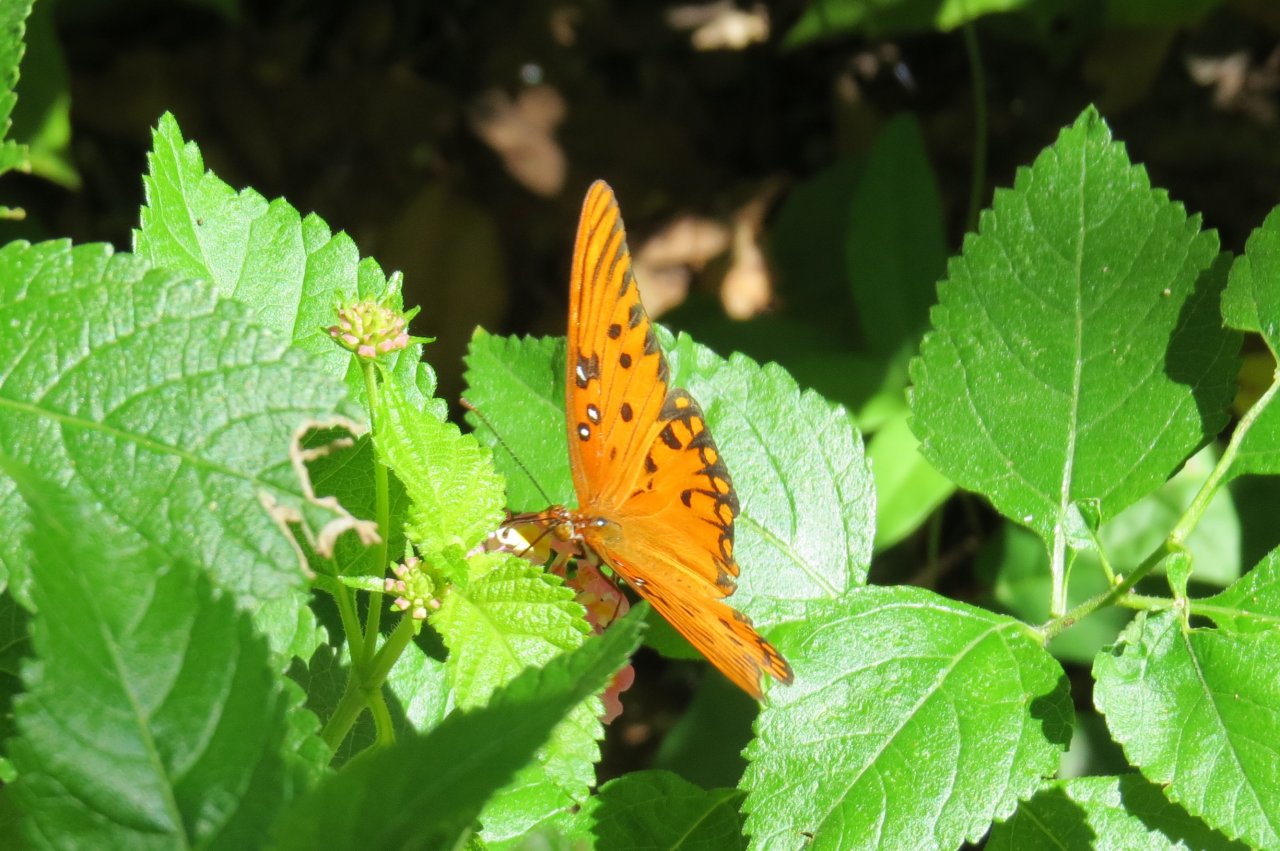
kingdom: Animalia
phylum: Arthropoda
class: Insecta
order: Lepidoptera
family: Nymphalidae
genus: Dione
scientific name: Dione vanillae
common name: Gulf Fritillary
